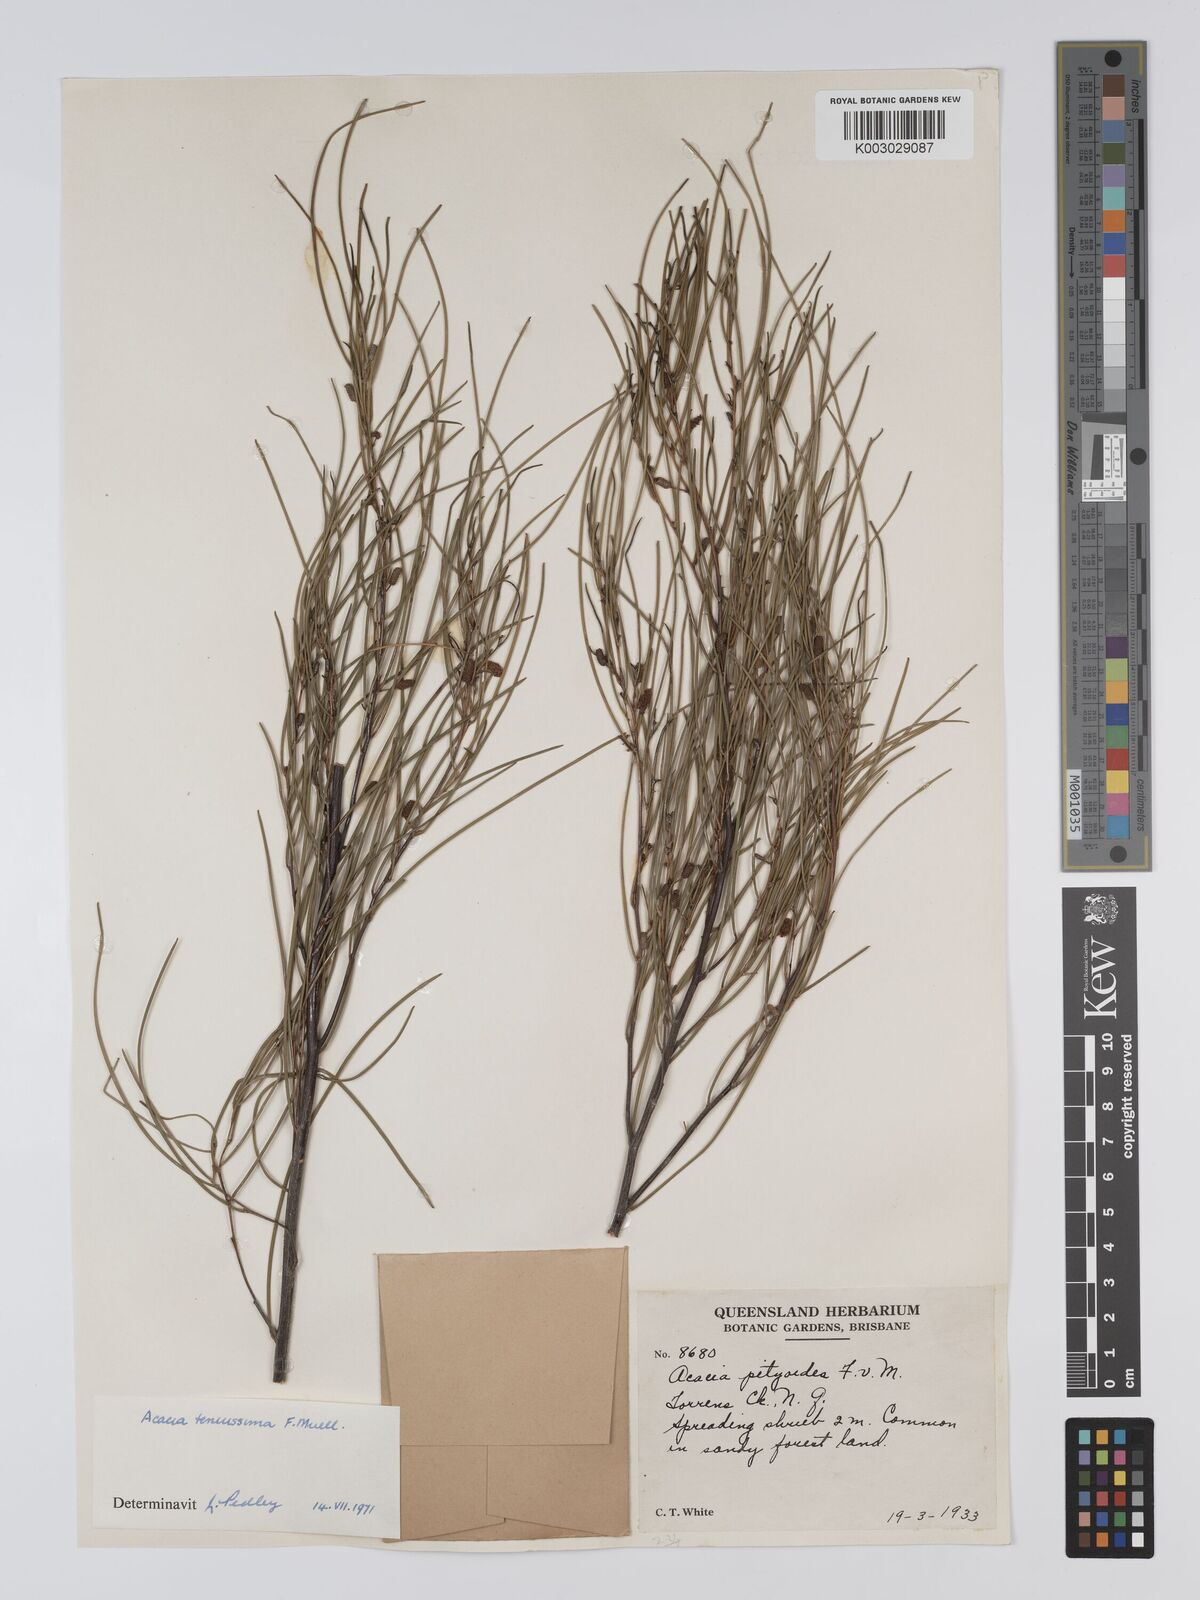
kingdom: Plantae
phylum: Tracheophyta
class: Magnoliopsida
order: Fabales
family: Fabaceae
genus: Acacia
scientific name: Acacia tenuissima
